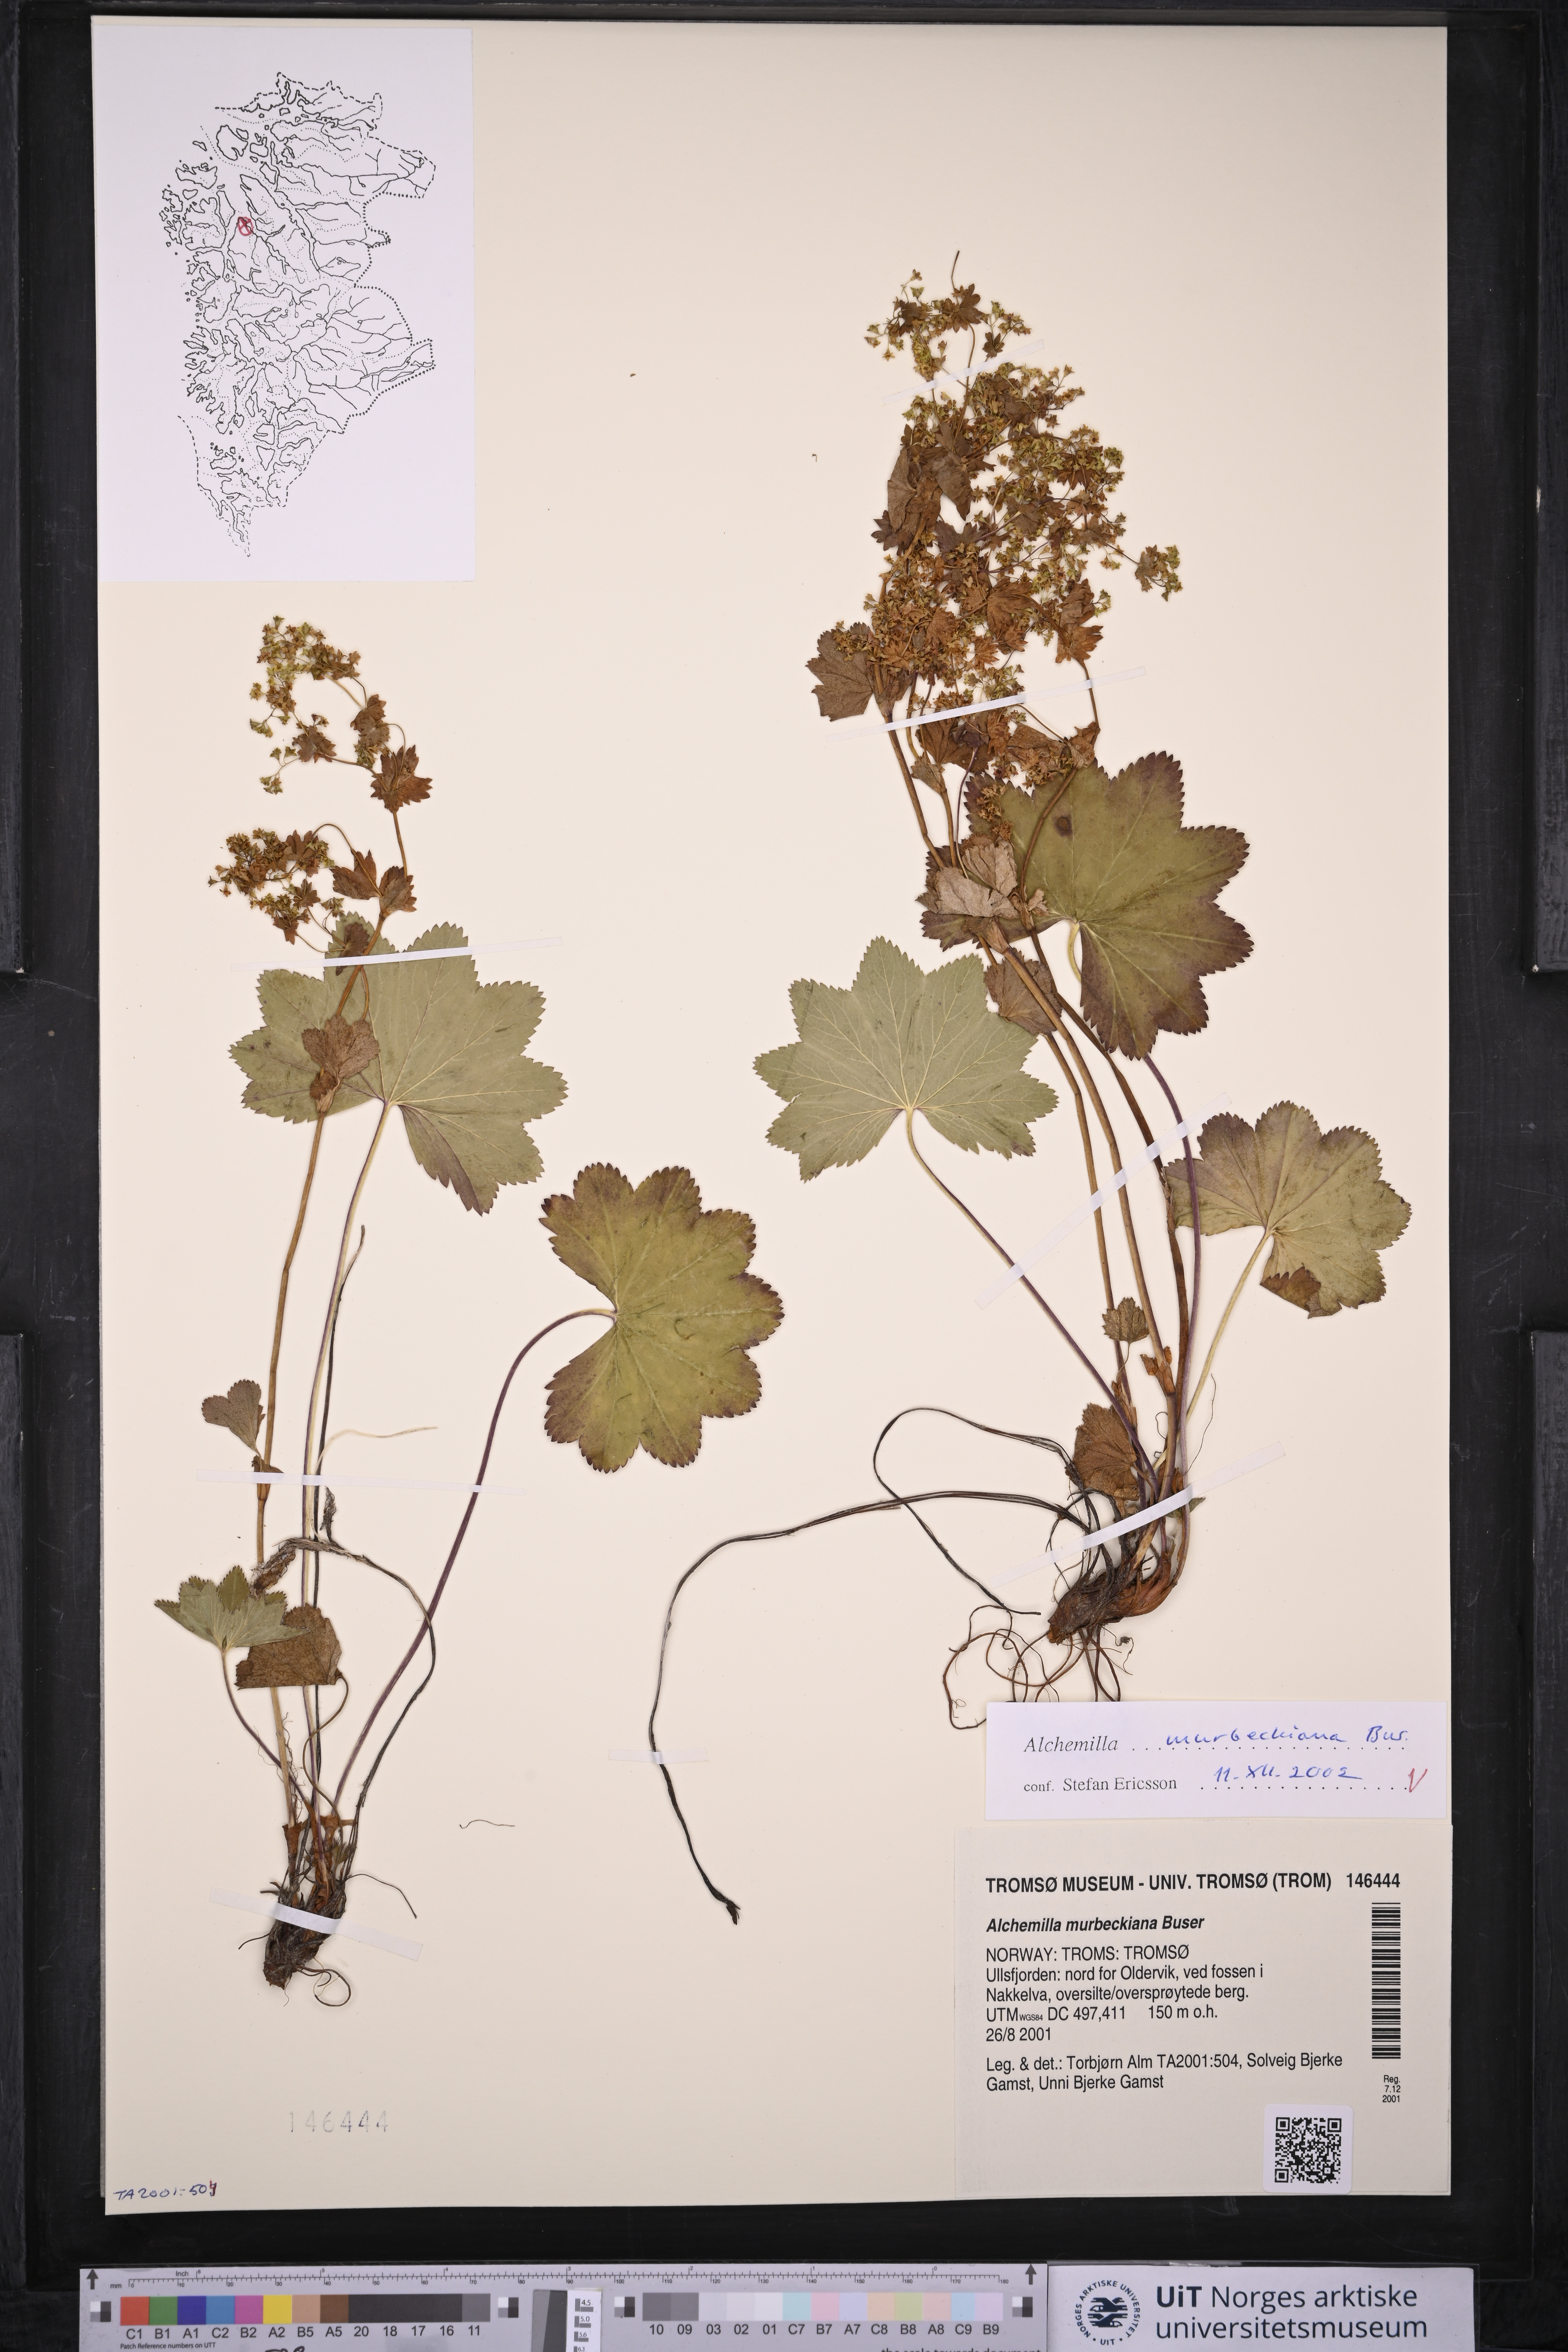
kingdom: Plantae
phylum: Tracheophyta
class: Magnoliopsida
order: Rosales
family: Rosaceae
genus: Alchemilla
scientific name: Alchemilla murbeckiana
